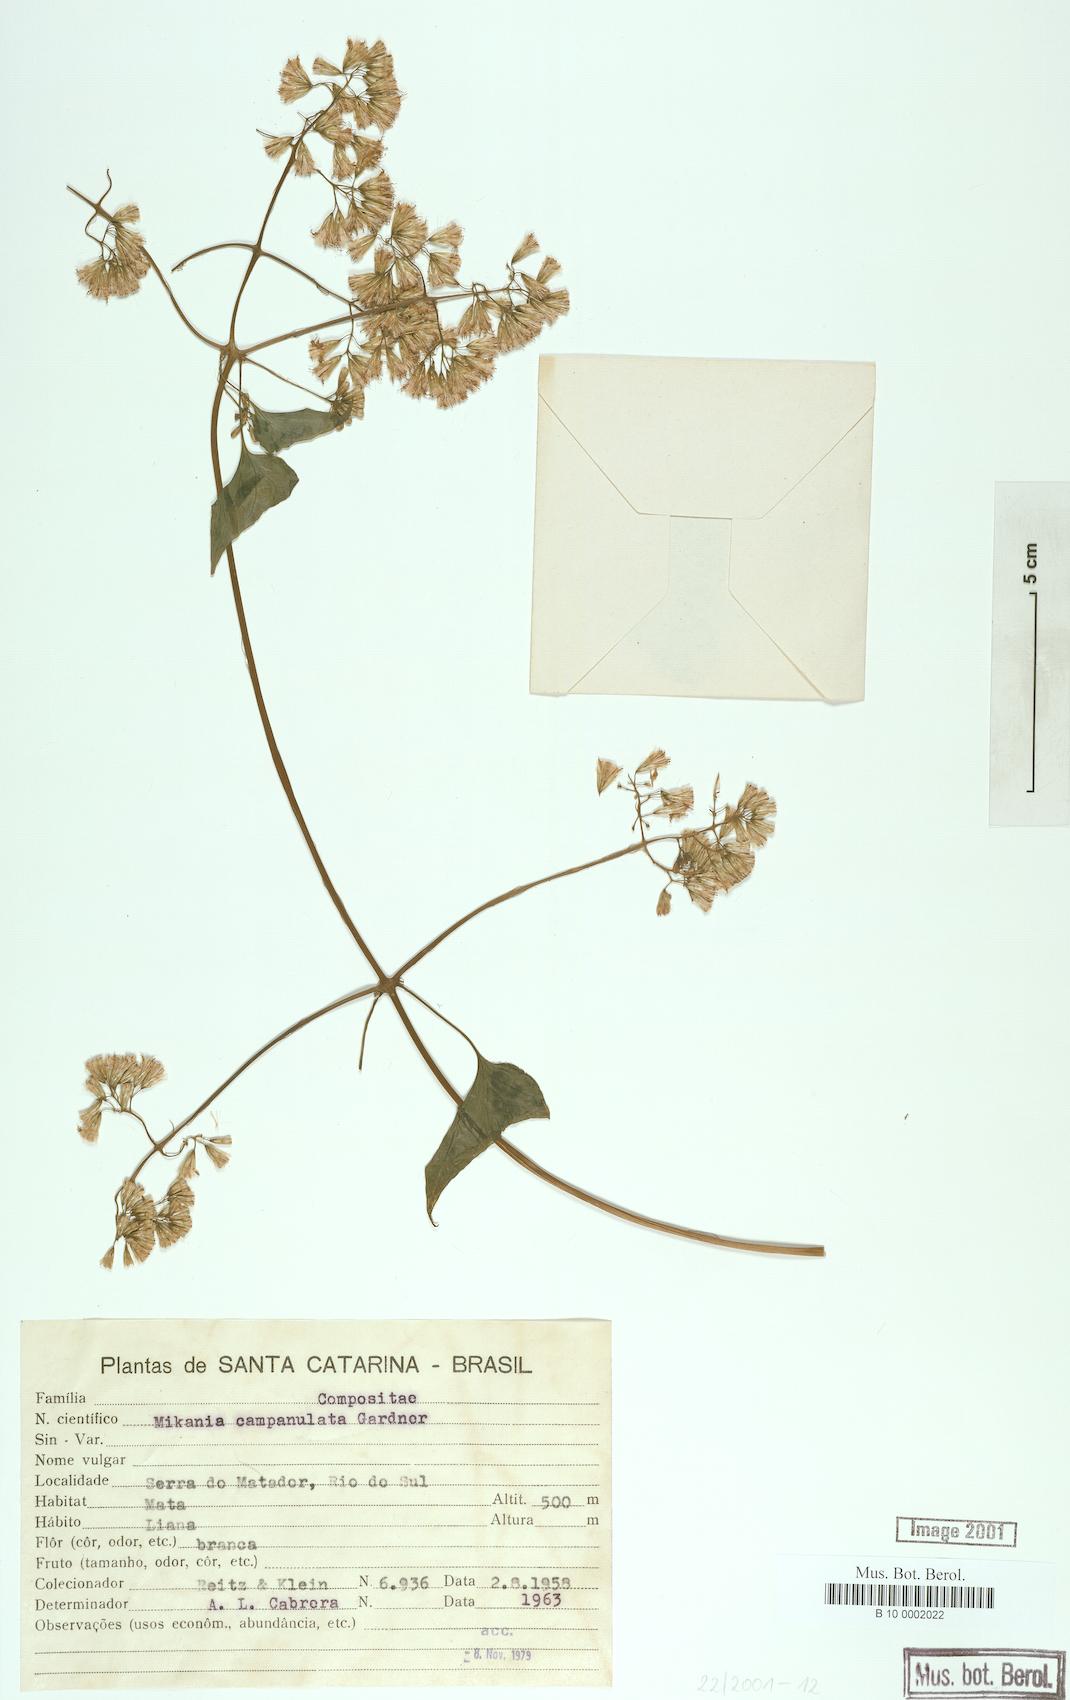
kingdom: Plantae
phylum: Tracheophyta
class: Magnoliopsida
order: Asterales
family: Asteraceae
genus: Mikania
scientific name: Mikania campanulata
